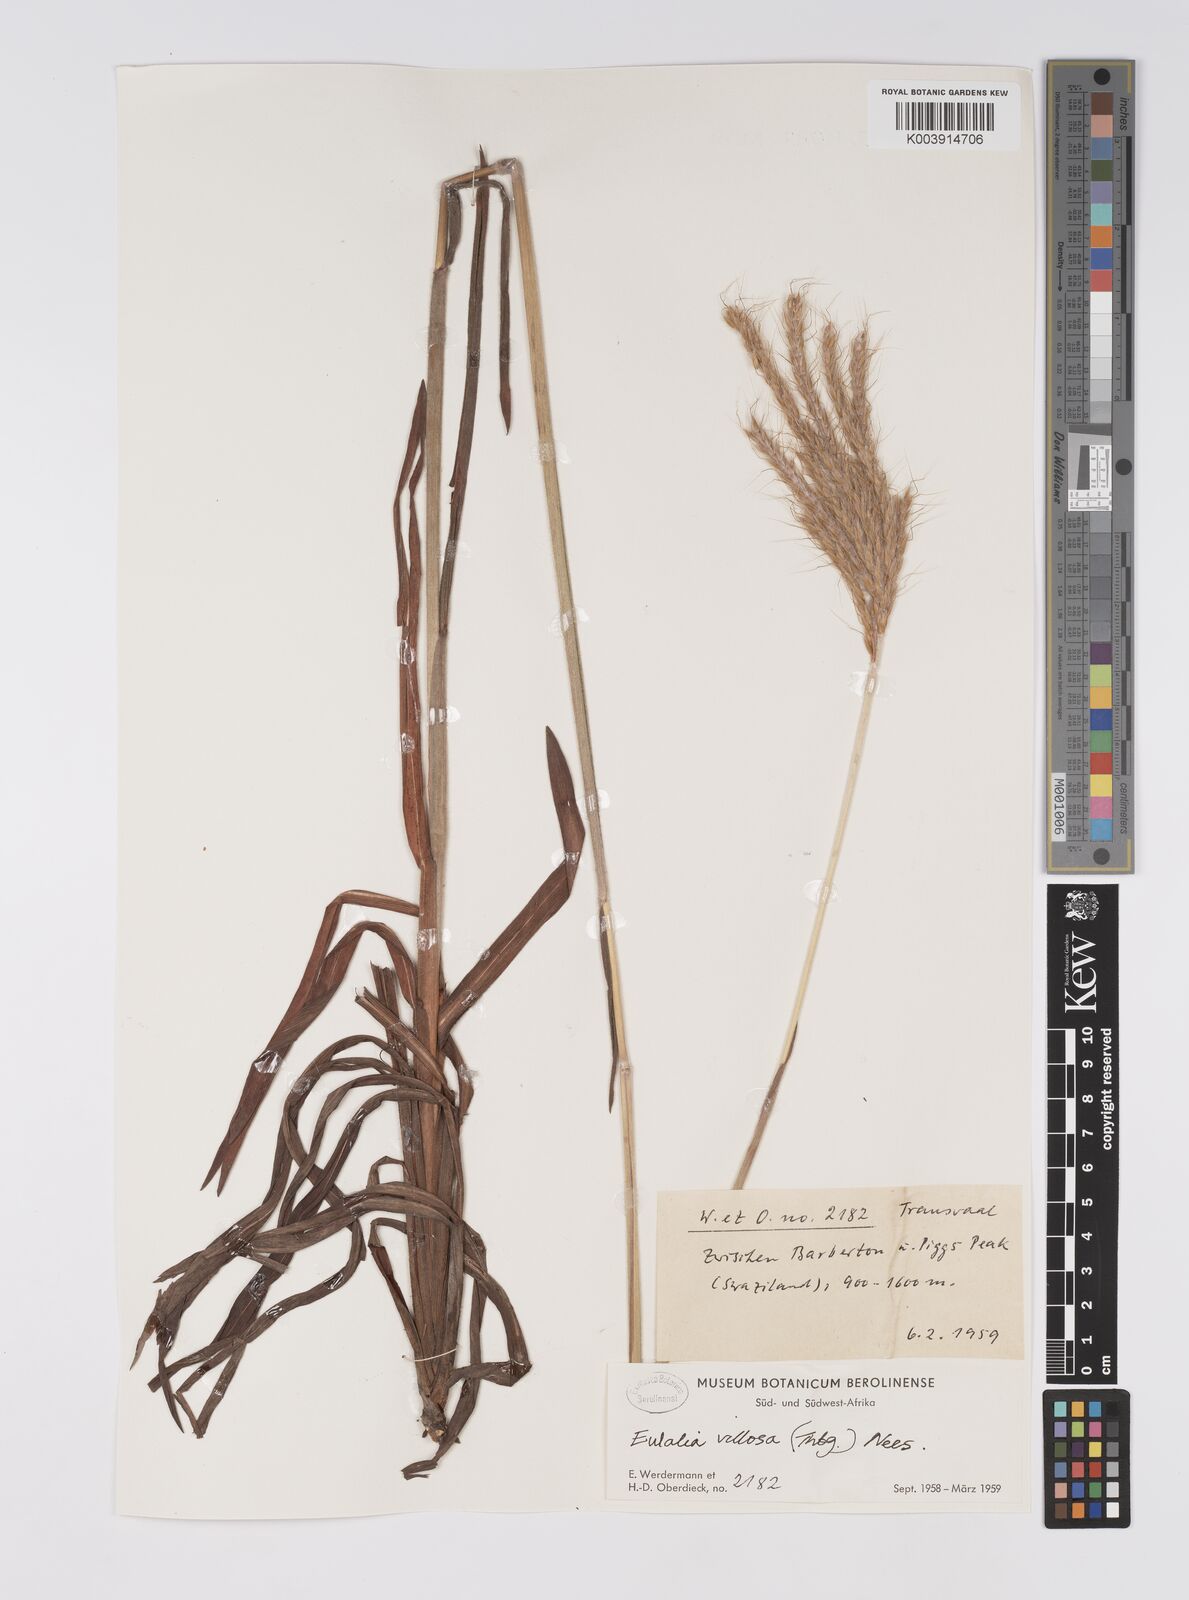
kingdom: Plantae
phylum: Tracheophyta
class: Liliopsida
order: Poales
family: Poaceae
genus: Eulalia
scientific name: Eulalia villosa
